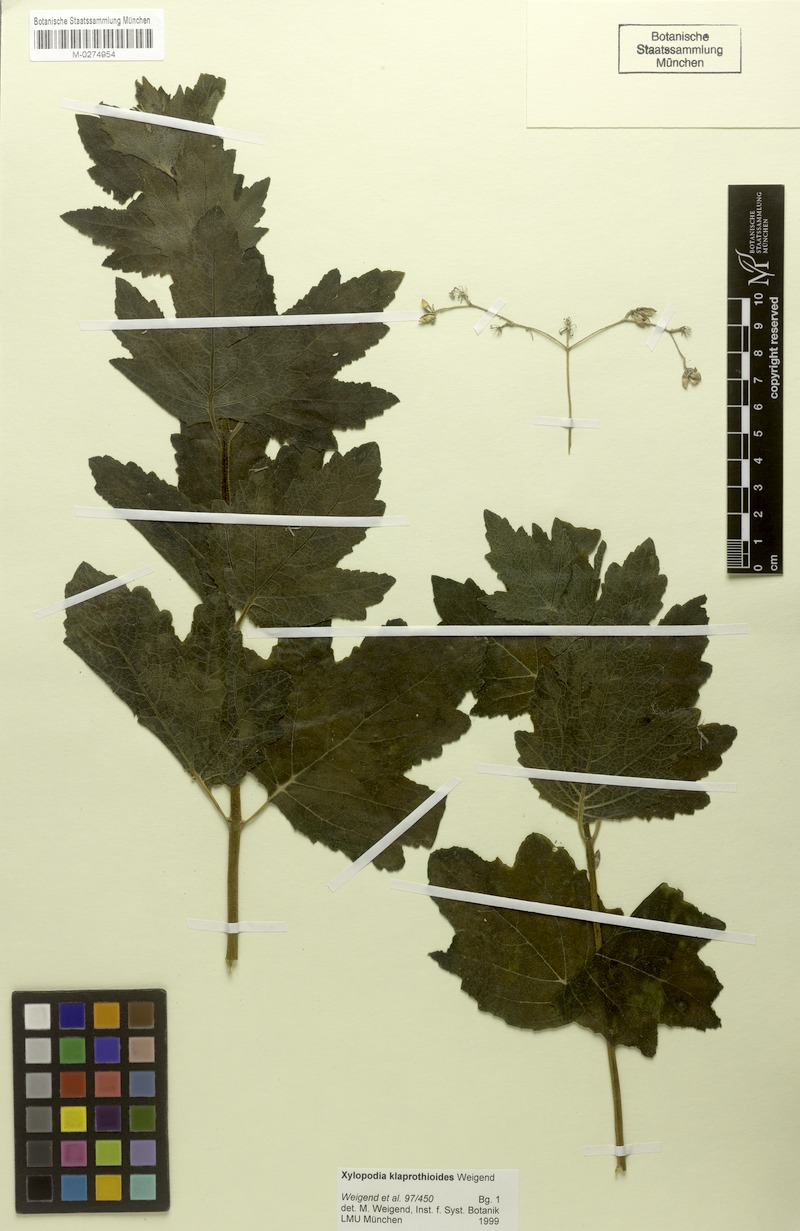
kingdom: Plantae
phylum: Tracheophyta
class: Magnoliopsida
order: Cornales
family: Loasaceae
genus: Xylopodia
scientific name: Xylopodia klaprothioides
